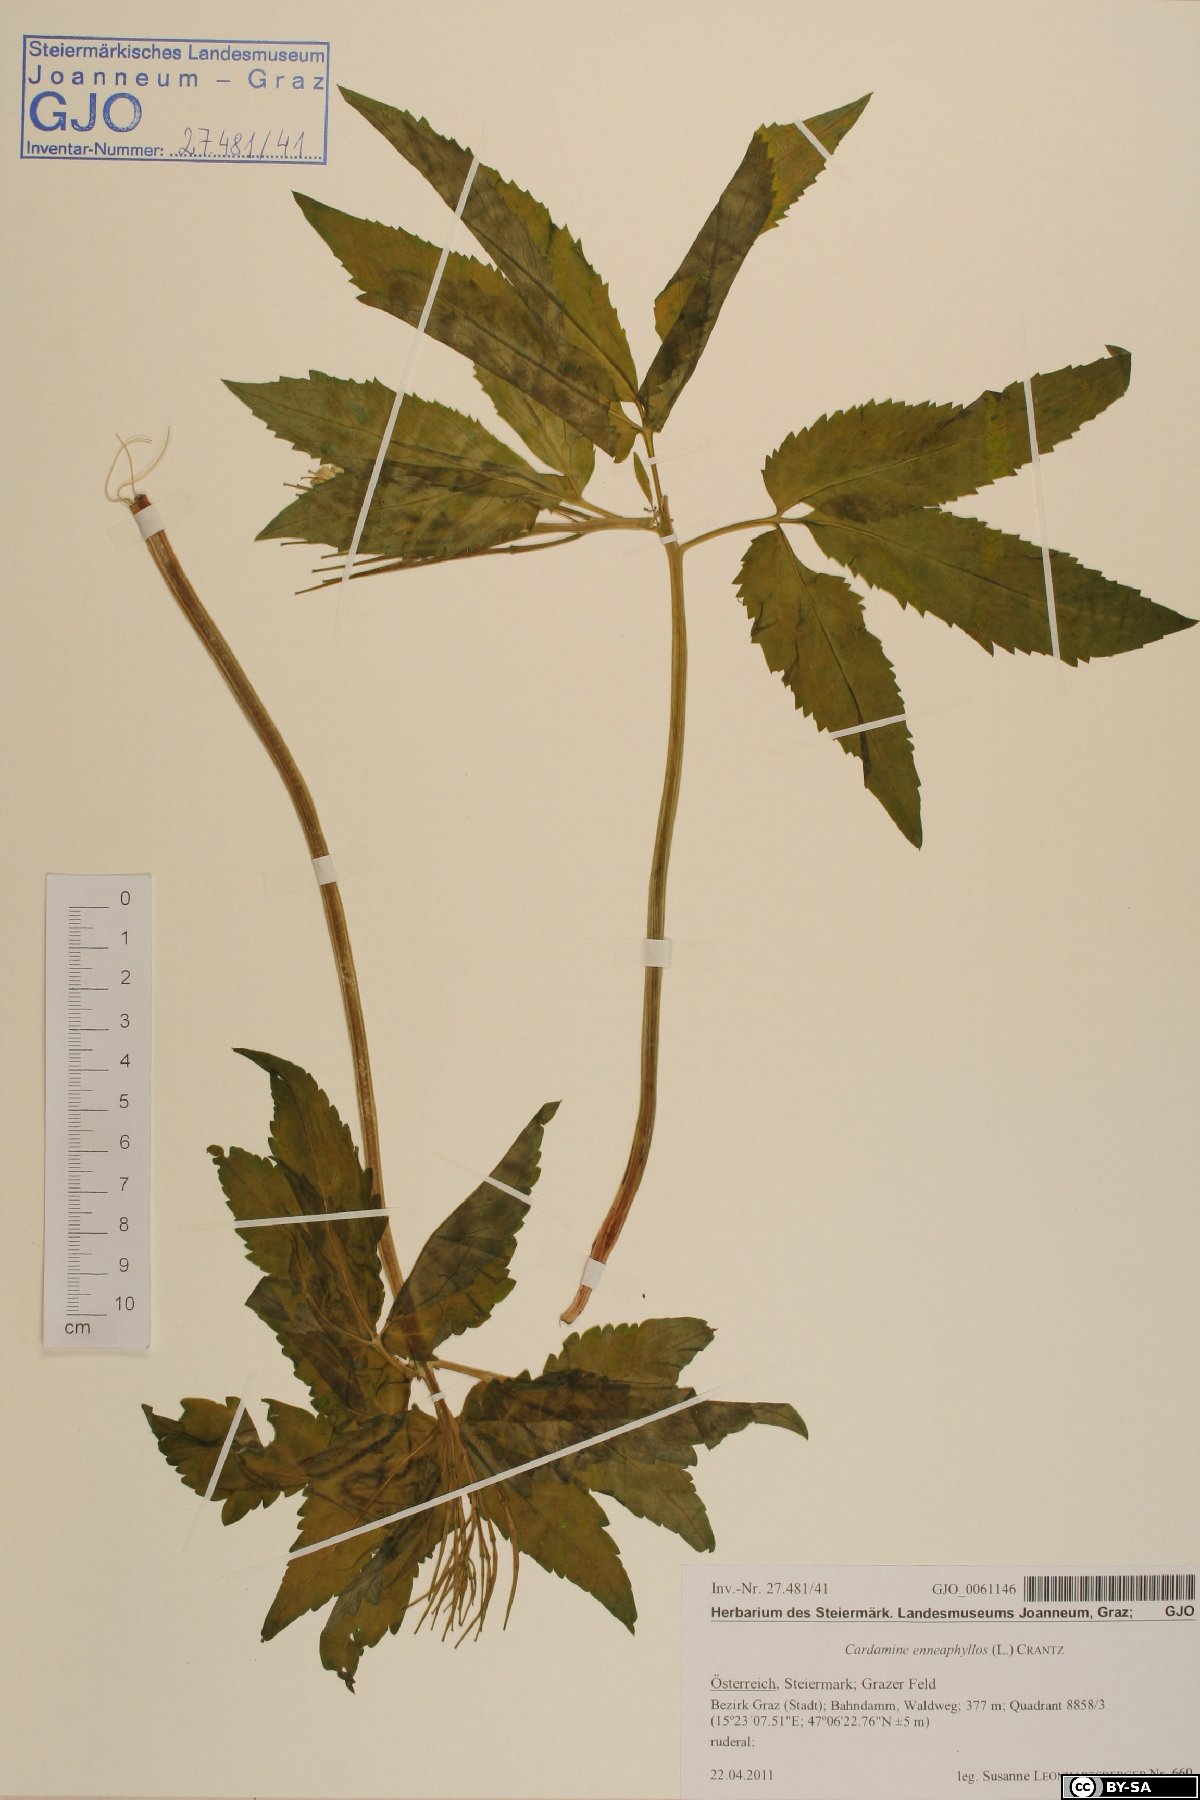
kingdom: Plantae
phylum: Tracheophyta
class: Magnoliopsida
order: Brassicales
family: Brassicaceae
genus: Cardamine
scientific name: Cardamine enneaphyllos
